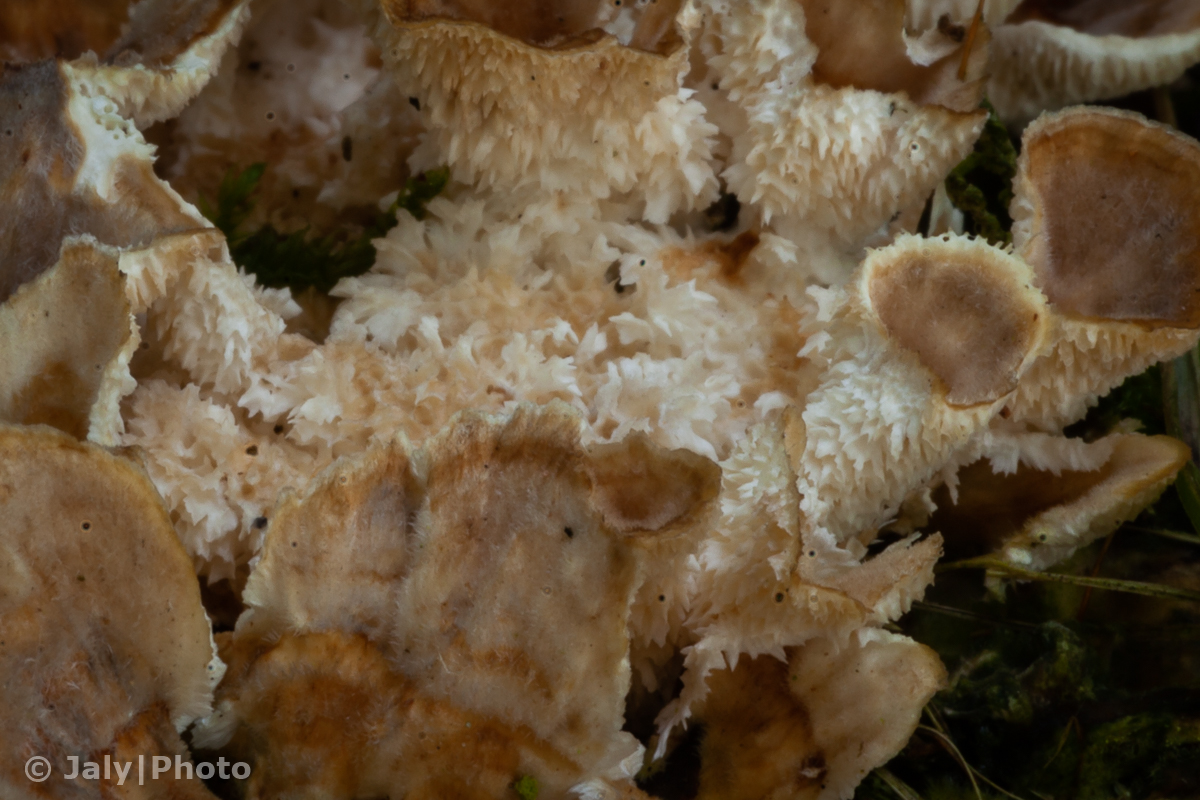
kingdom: Fungi
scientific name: Fungi
